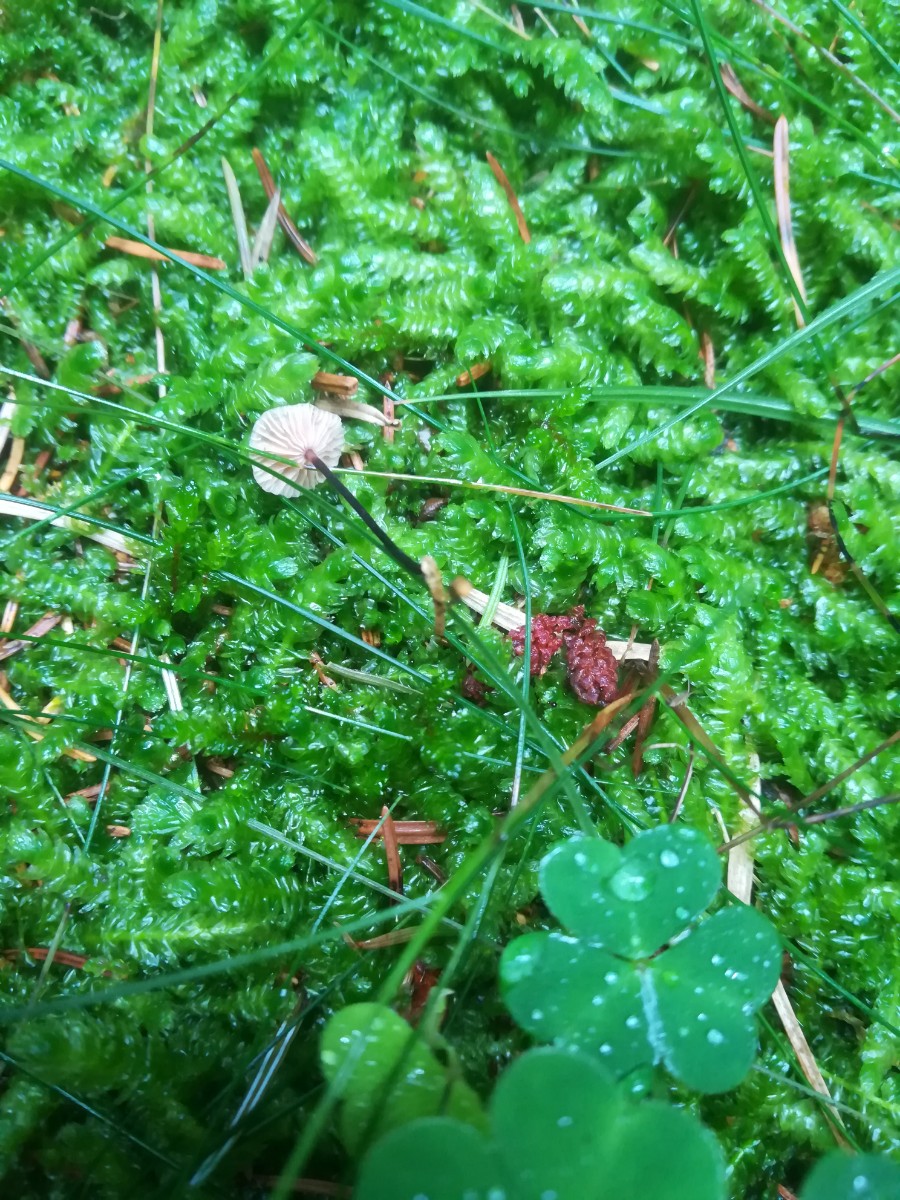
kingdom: Fungi
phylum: Basidiomycota
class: Agaricomycetes
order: Agaricales
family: Omphalotaceae
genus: Paragymnopus
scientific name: Paragymnopus perforans
